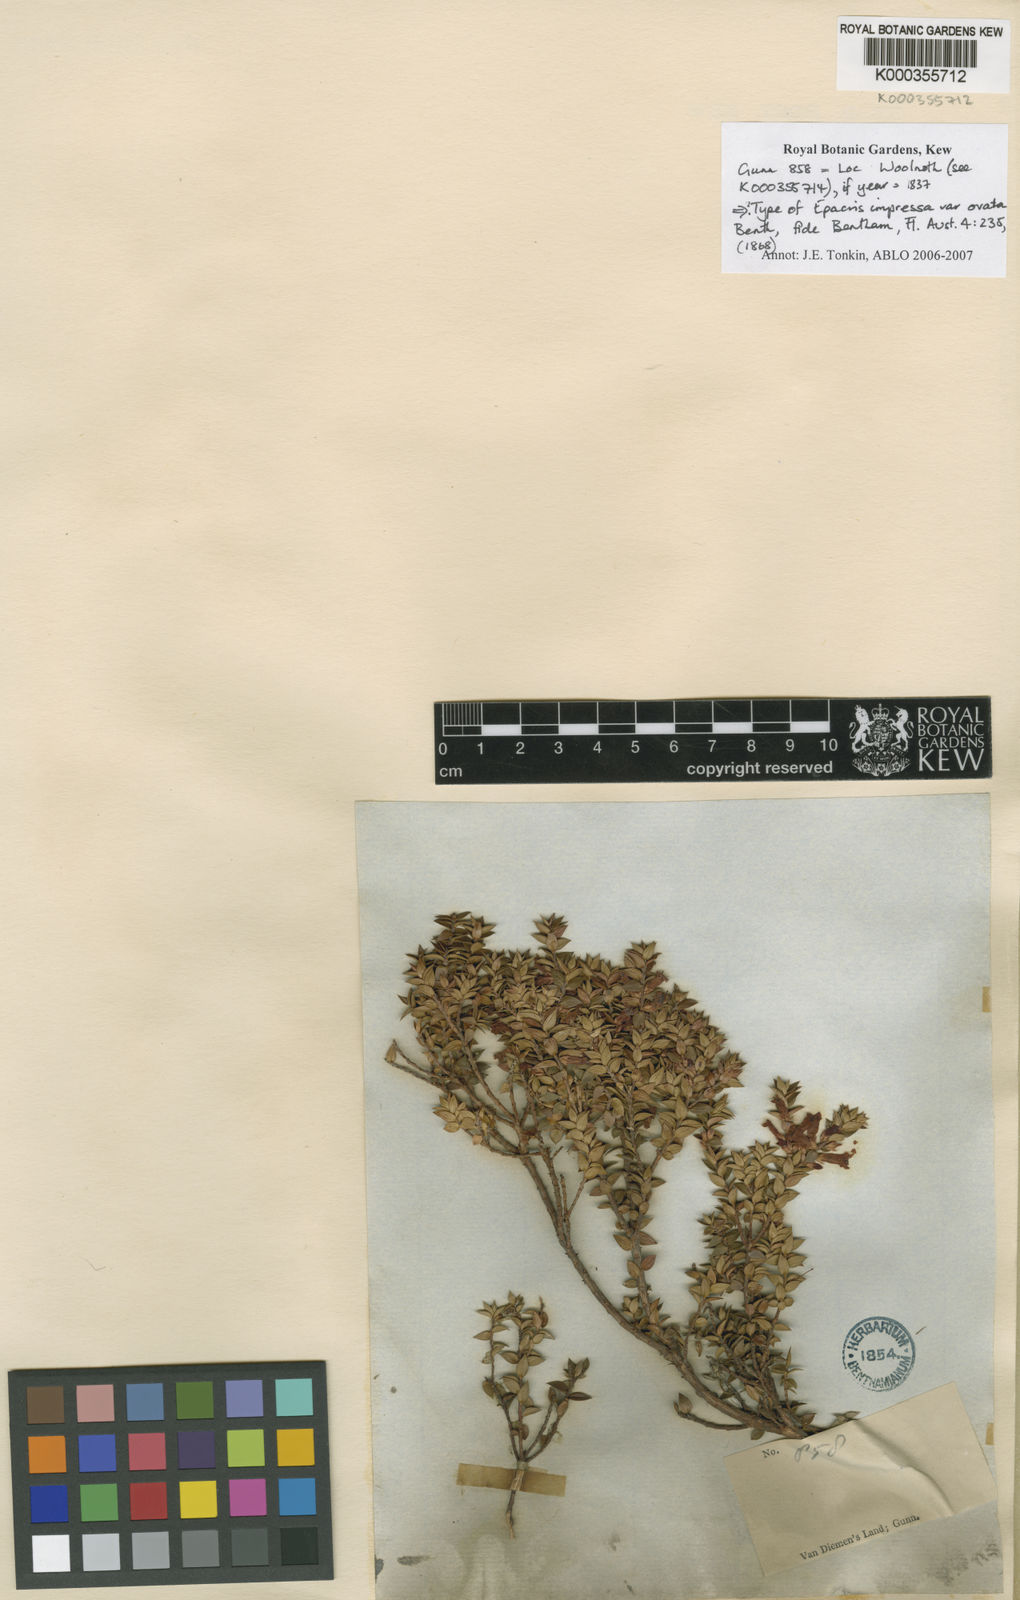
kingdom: Plantae
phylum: Tracheophyta
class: Magnoliopsida
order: Ericales
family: Ericaceae
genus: Epacris
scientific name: Epacris impressa
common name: Common-heath
